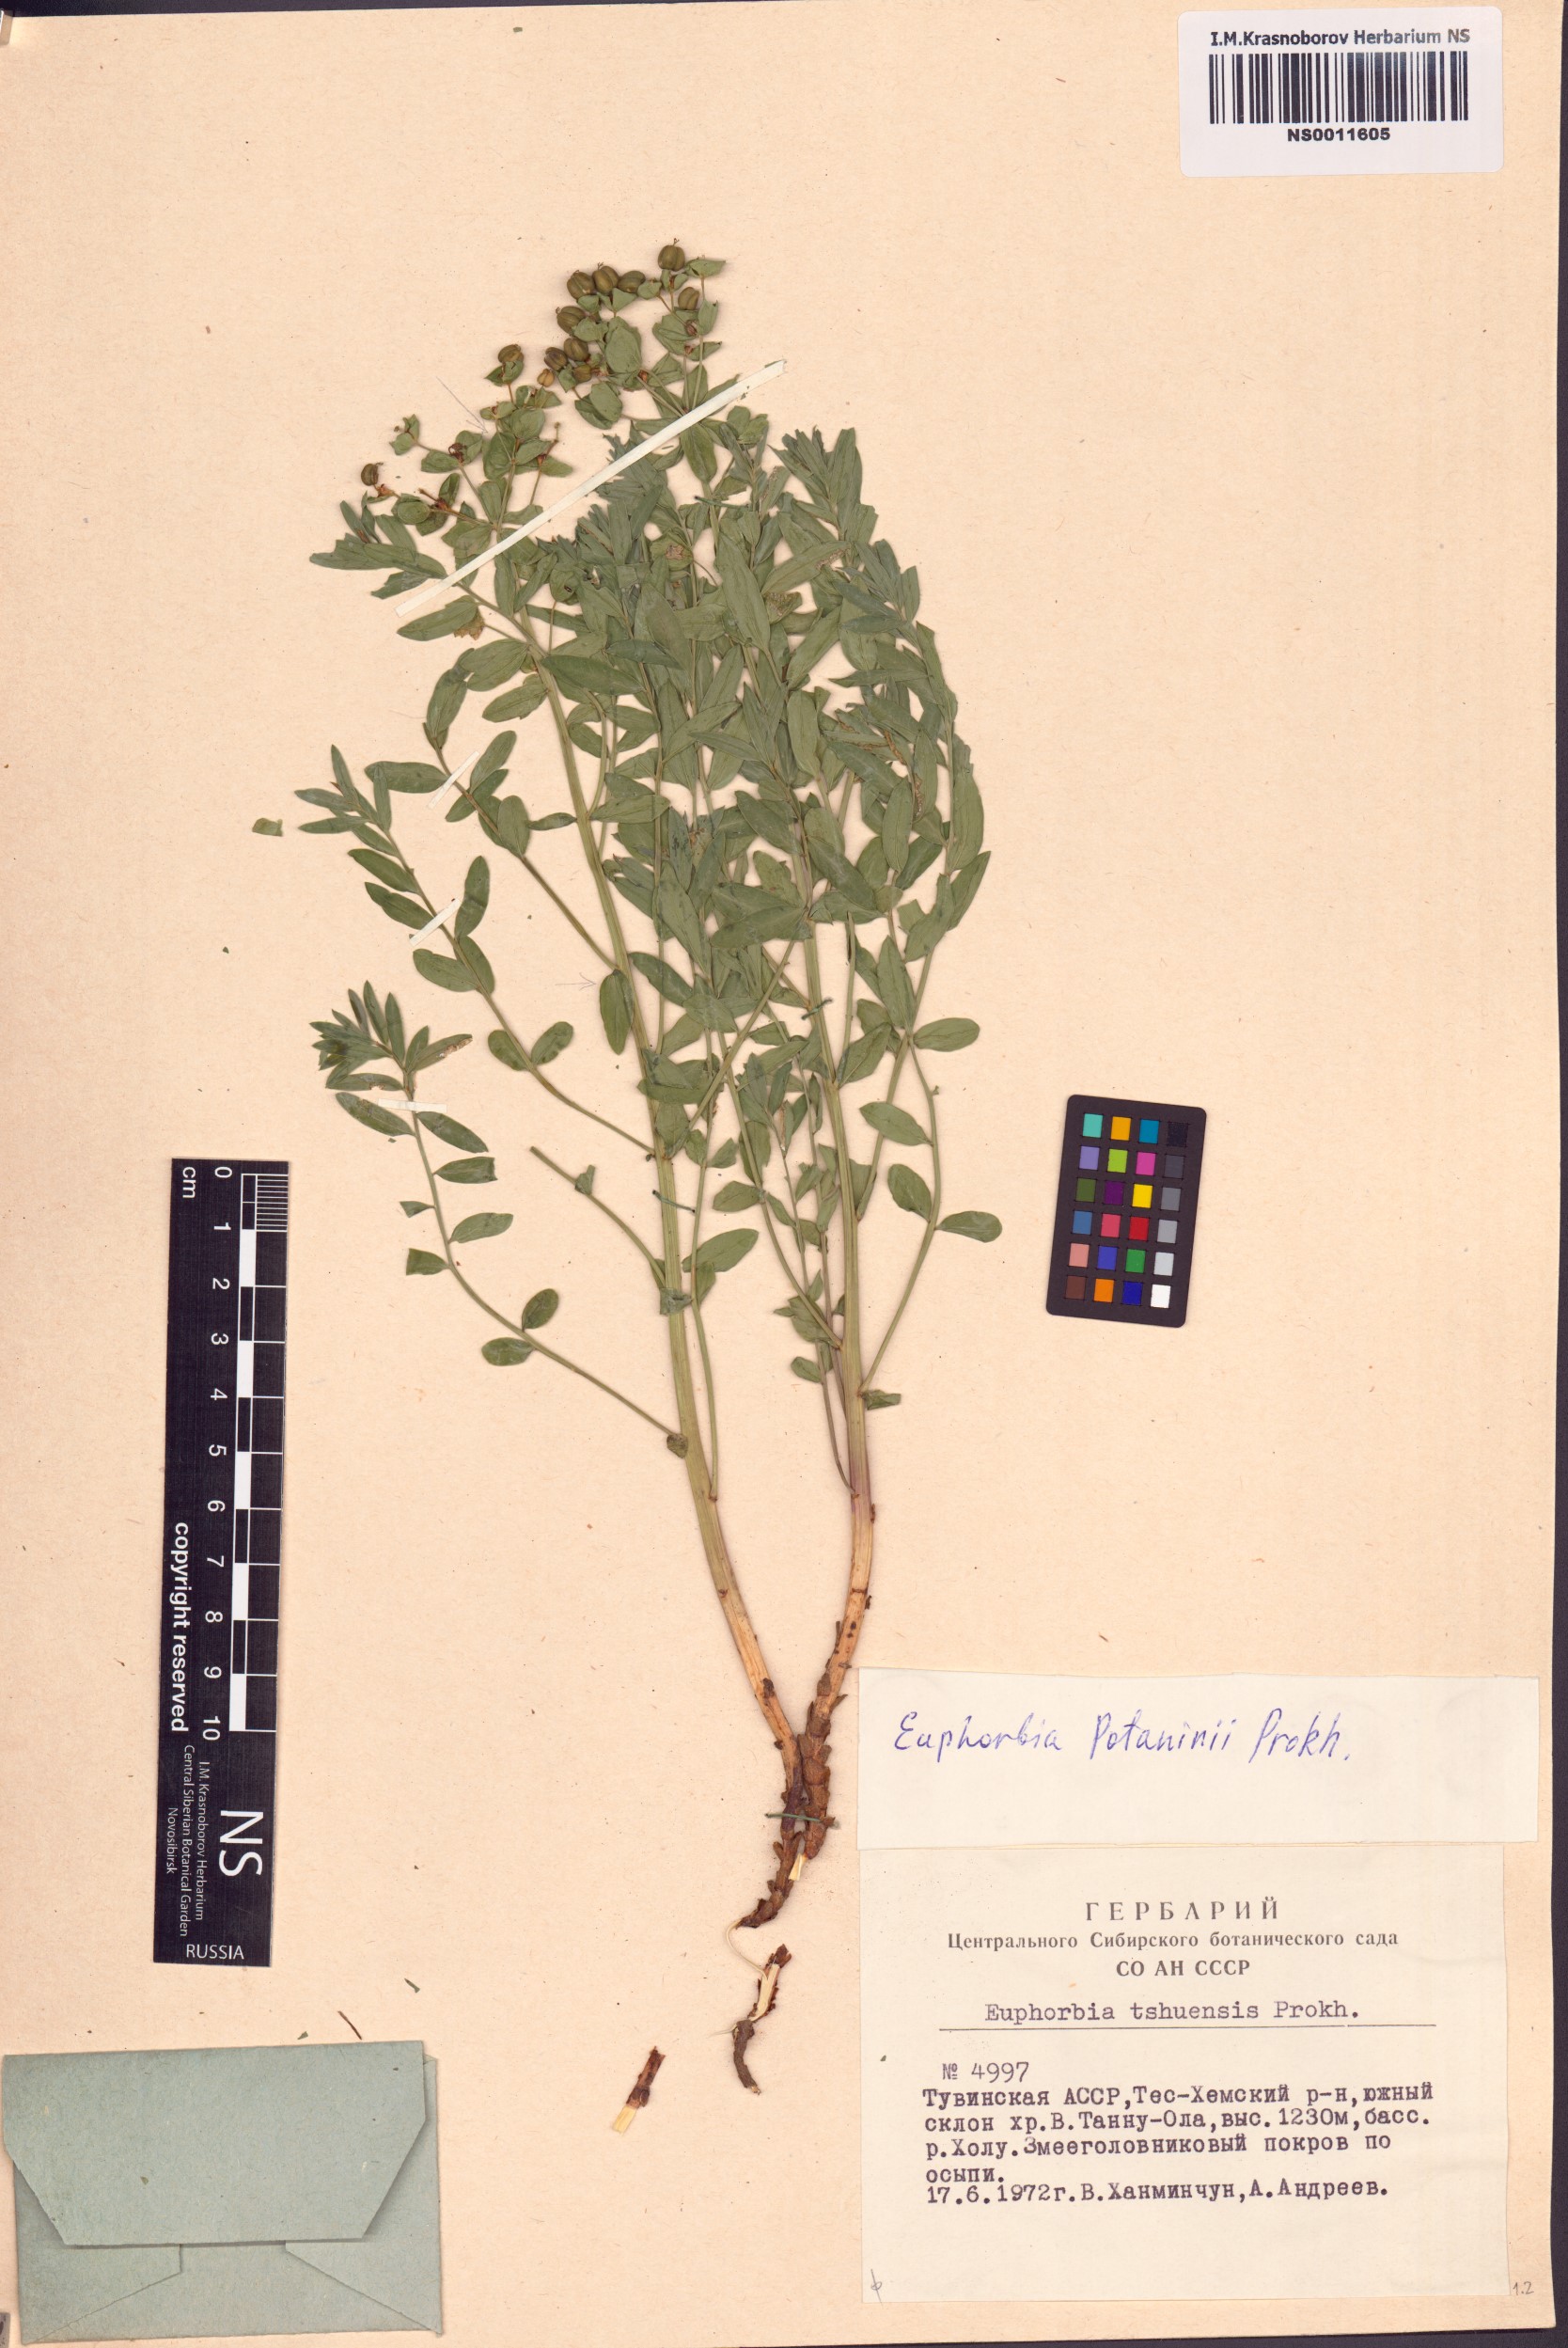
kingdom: Plantae
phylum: Tracheophyta
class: Magnoliopsida
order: Malpighiales
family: Euphorbiaceae
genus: Euphorbia
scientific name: Euphorbia potaninii
